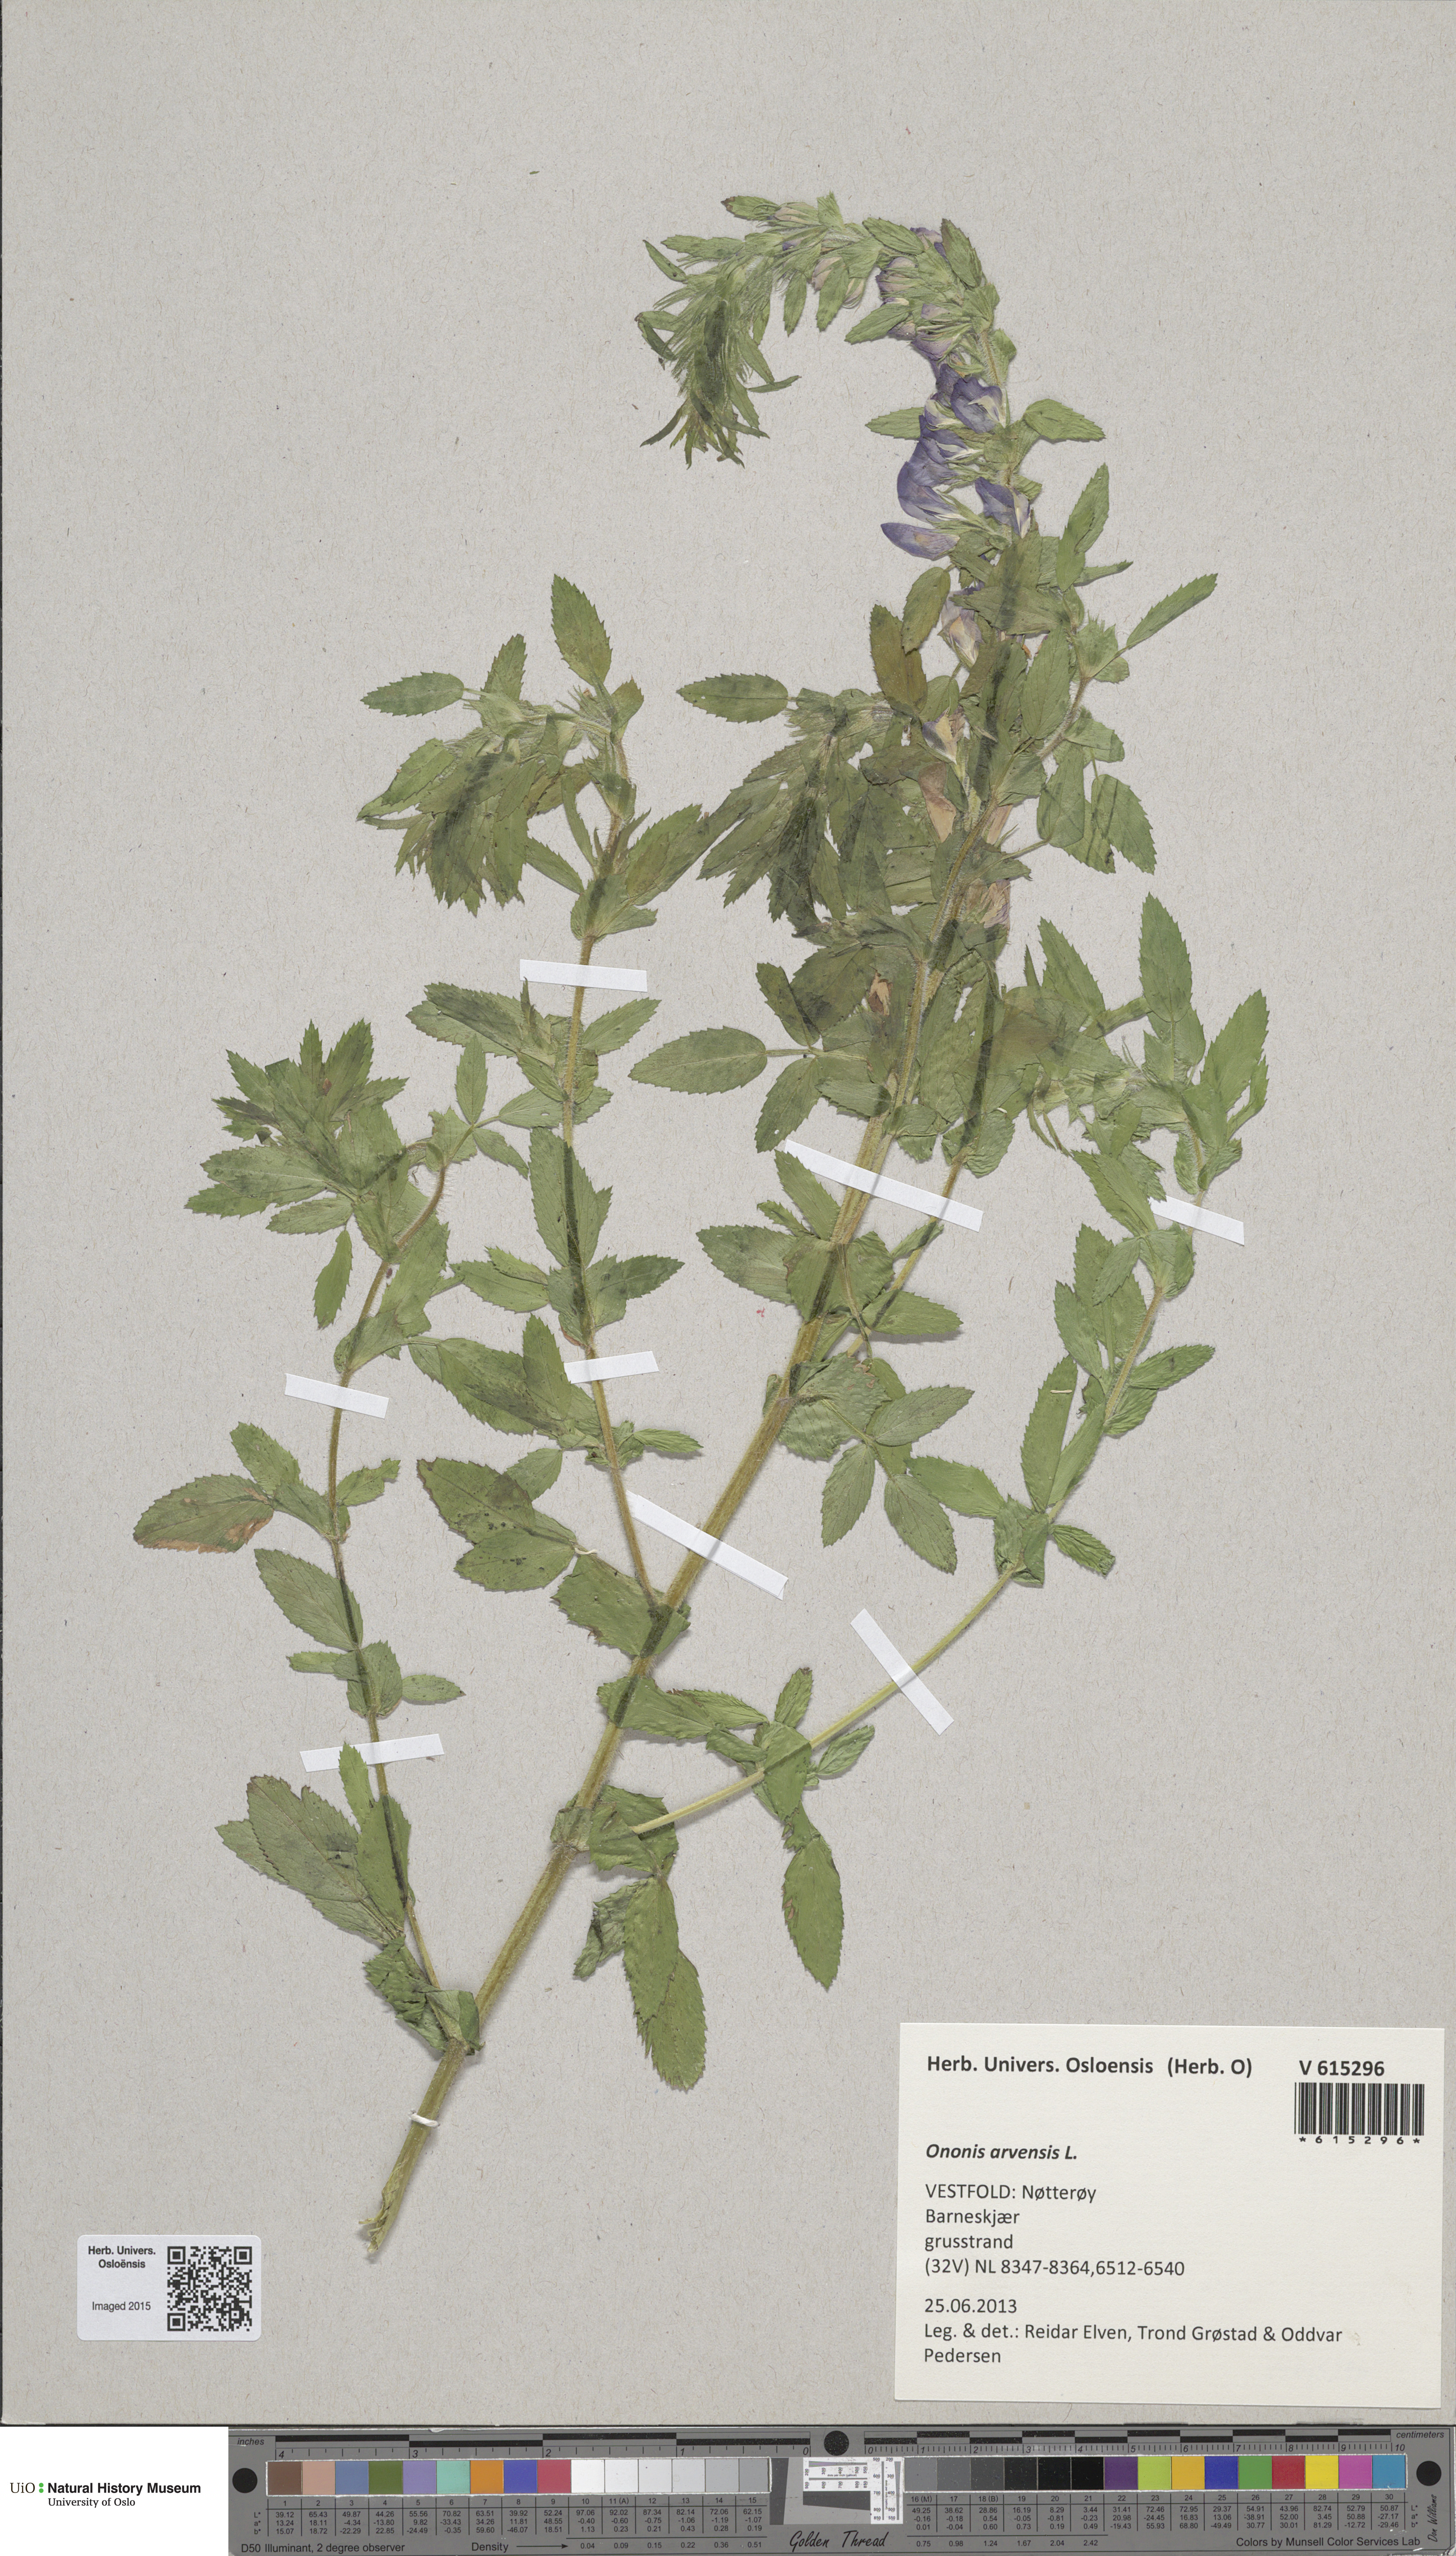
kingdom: Plantae
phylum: Tracheophyta
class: Magnoliopsida
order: Fabales
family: Fabaceae
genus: Ononis
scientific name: Ononis arvensis
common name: Field restharrow
